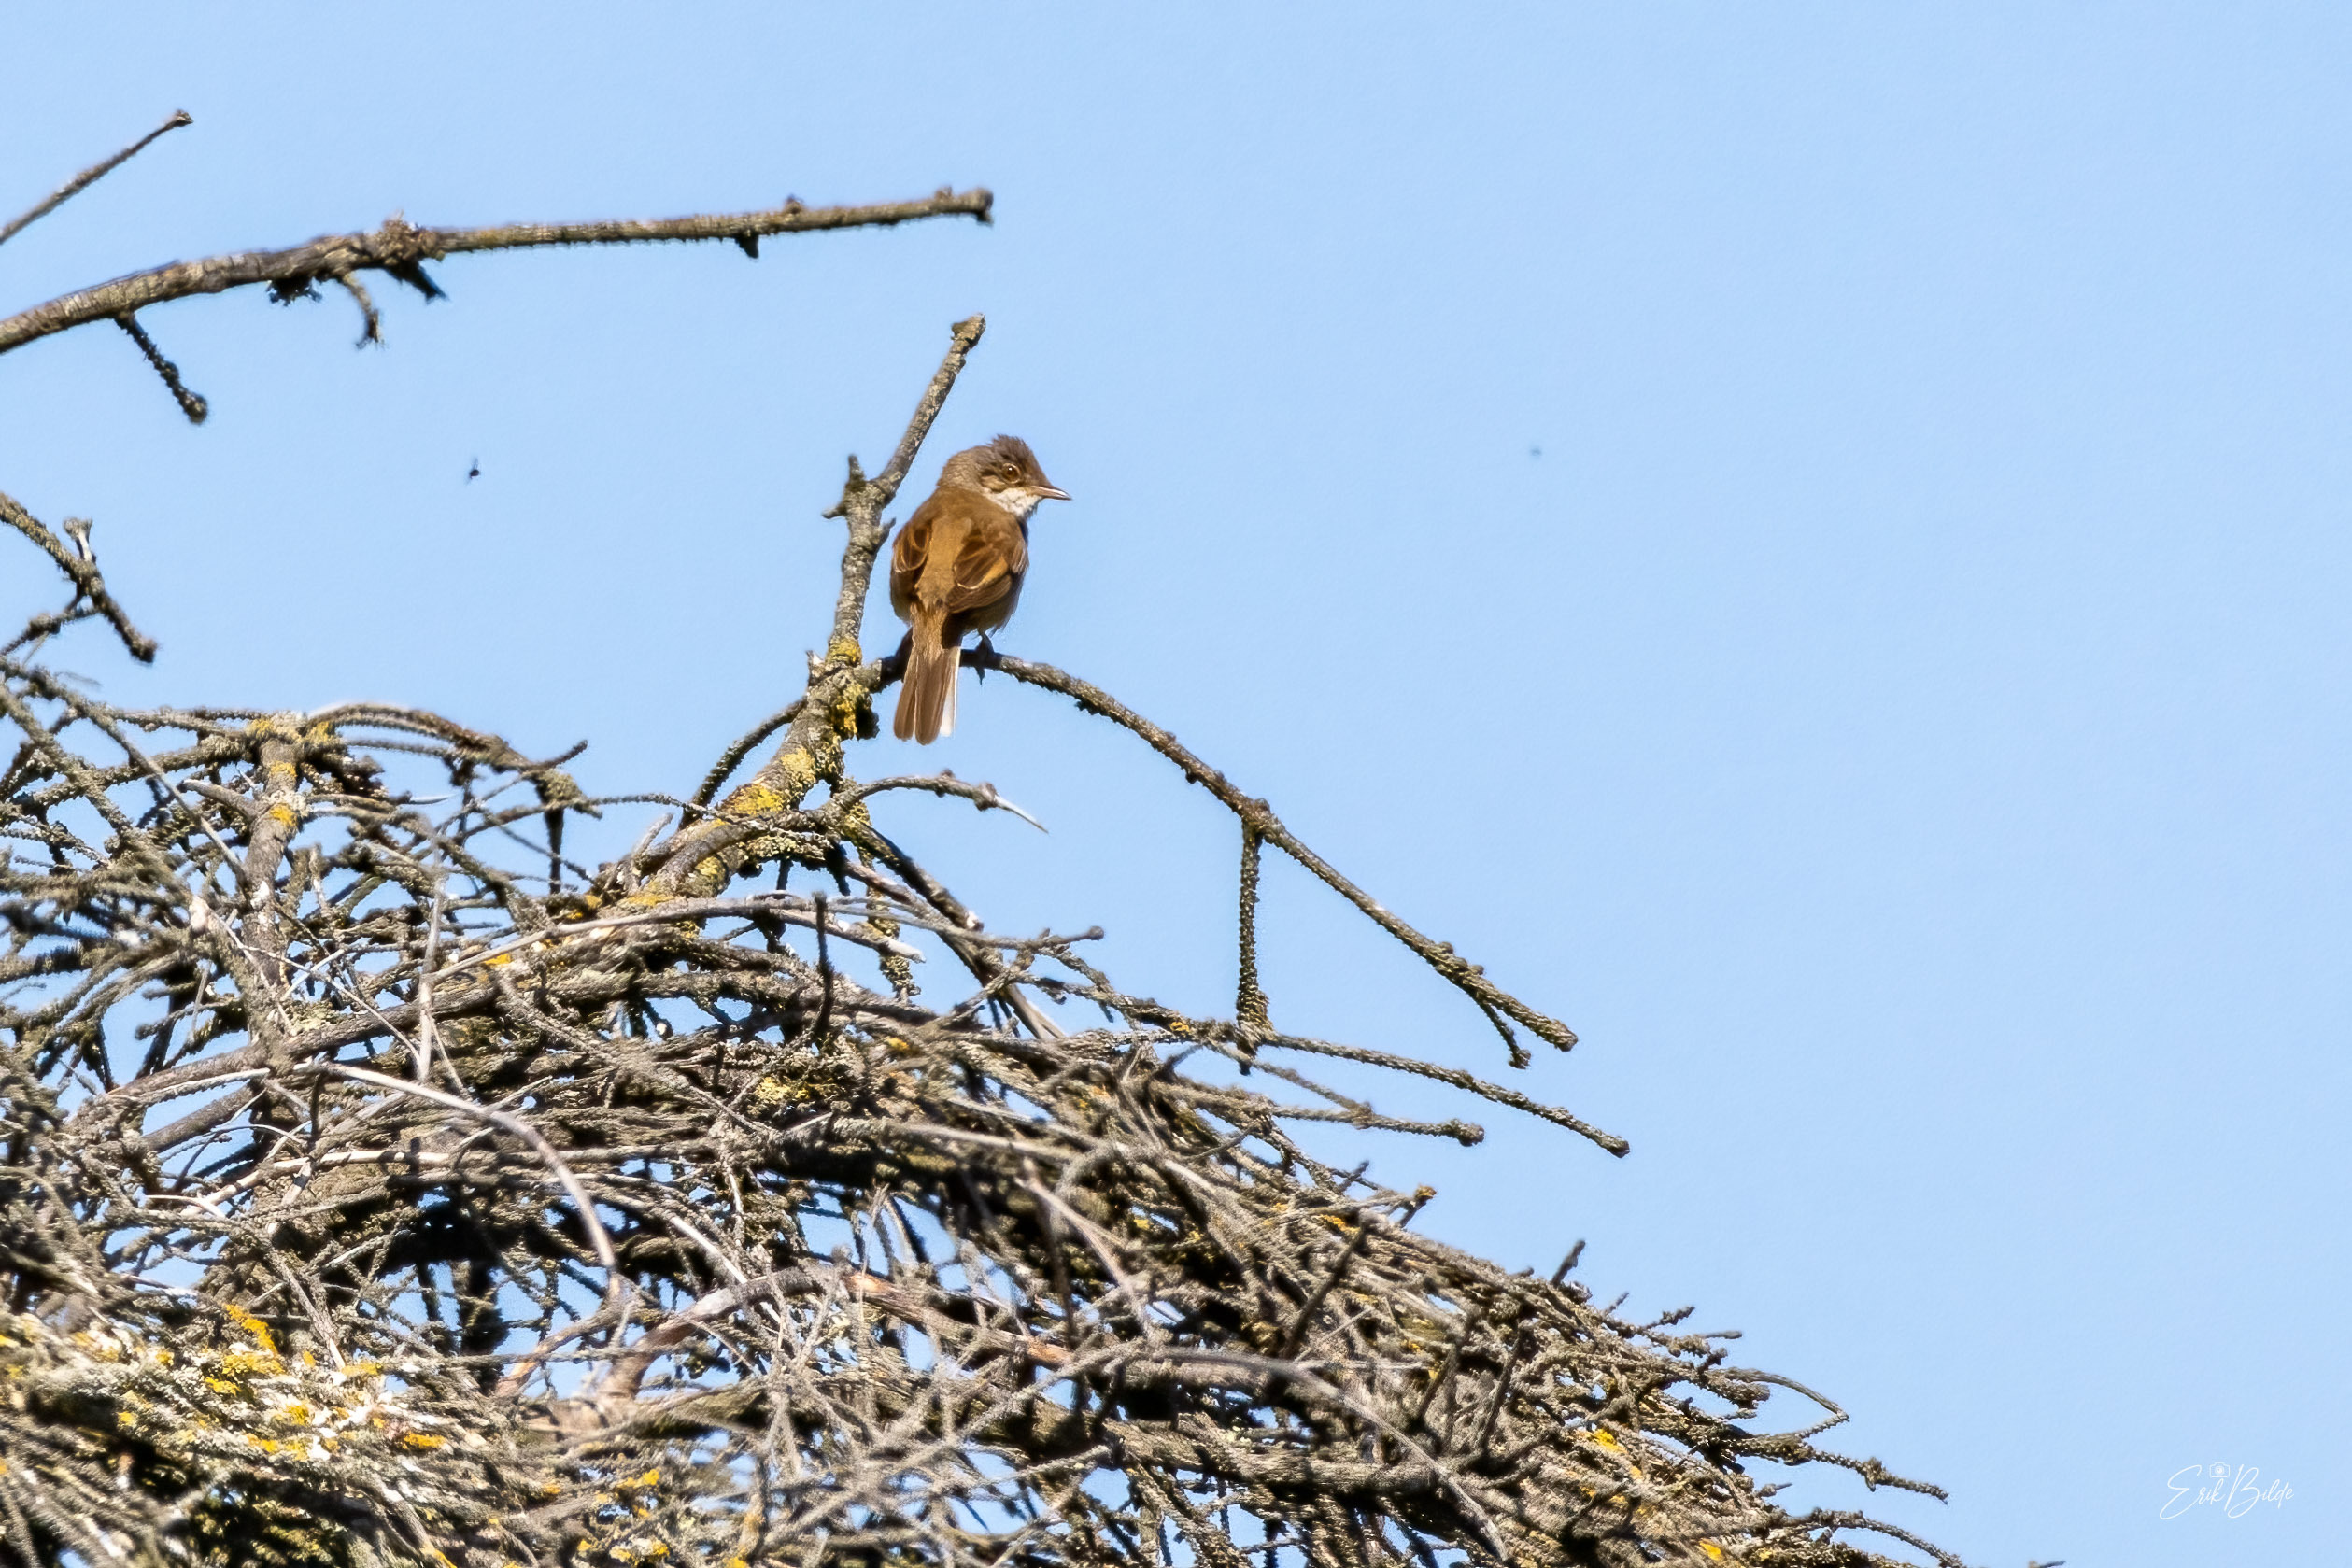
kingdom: Animalia
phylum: Chordata
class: Aves
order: Passeriformes
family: Sylviidae
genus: Sylvia
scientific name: Sylvia communis
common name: Tornsanger
